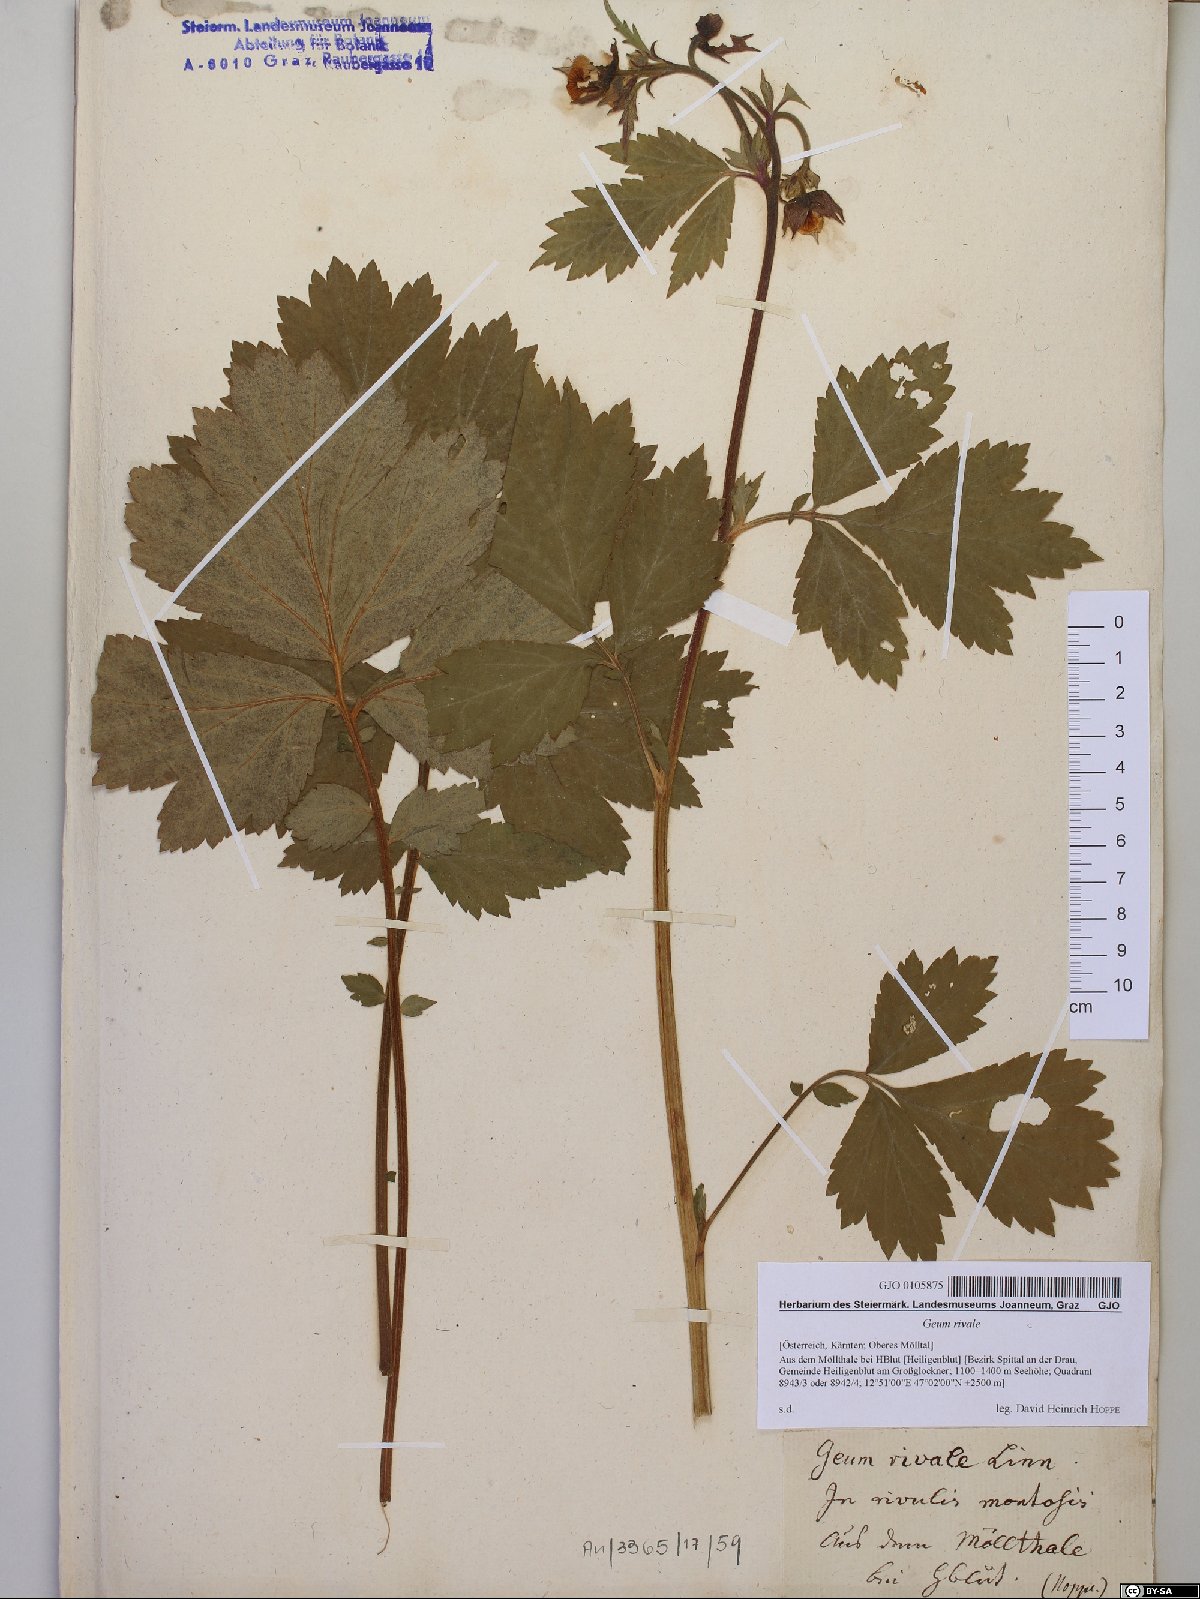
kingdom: Plantae
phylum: Tracheophyta
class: Magnoliopsida
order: Rosales
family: Rosaceae
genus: Geum
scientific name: Geum rivale
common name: Water avens
